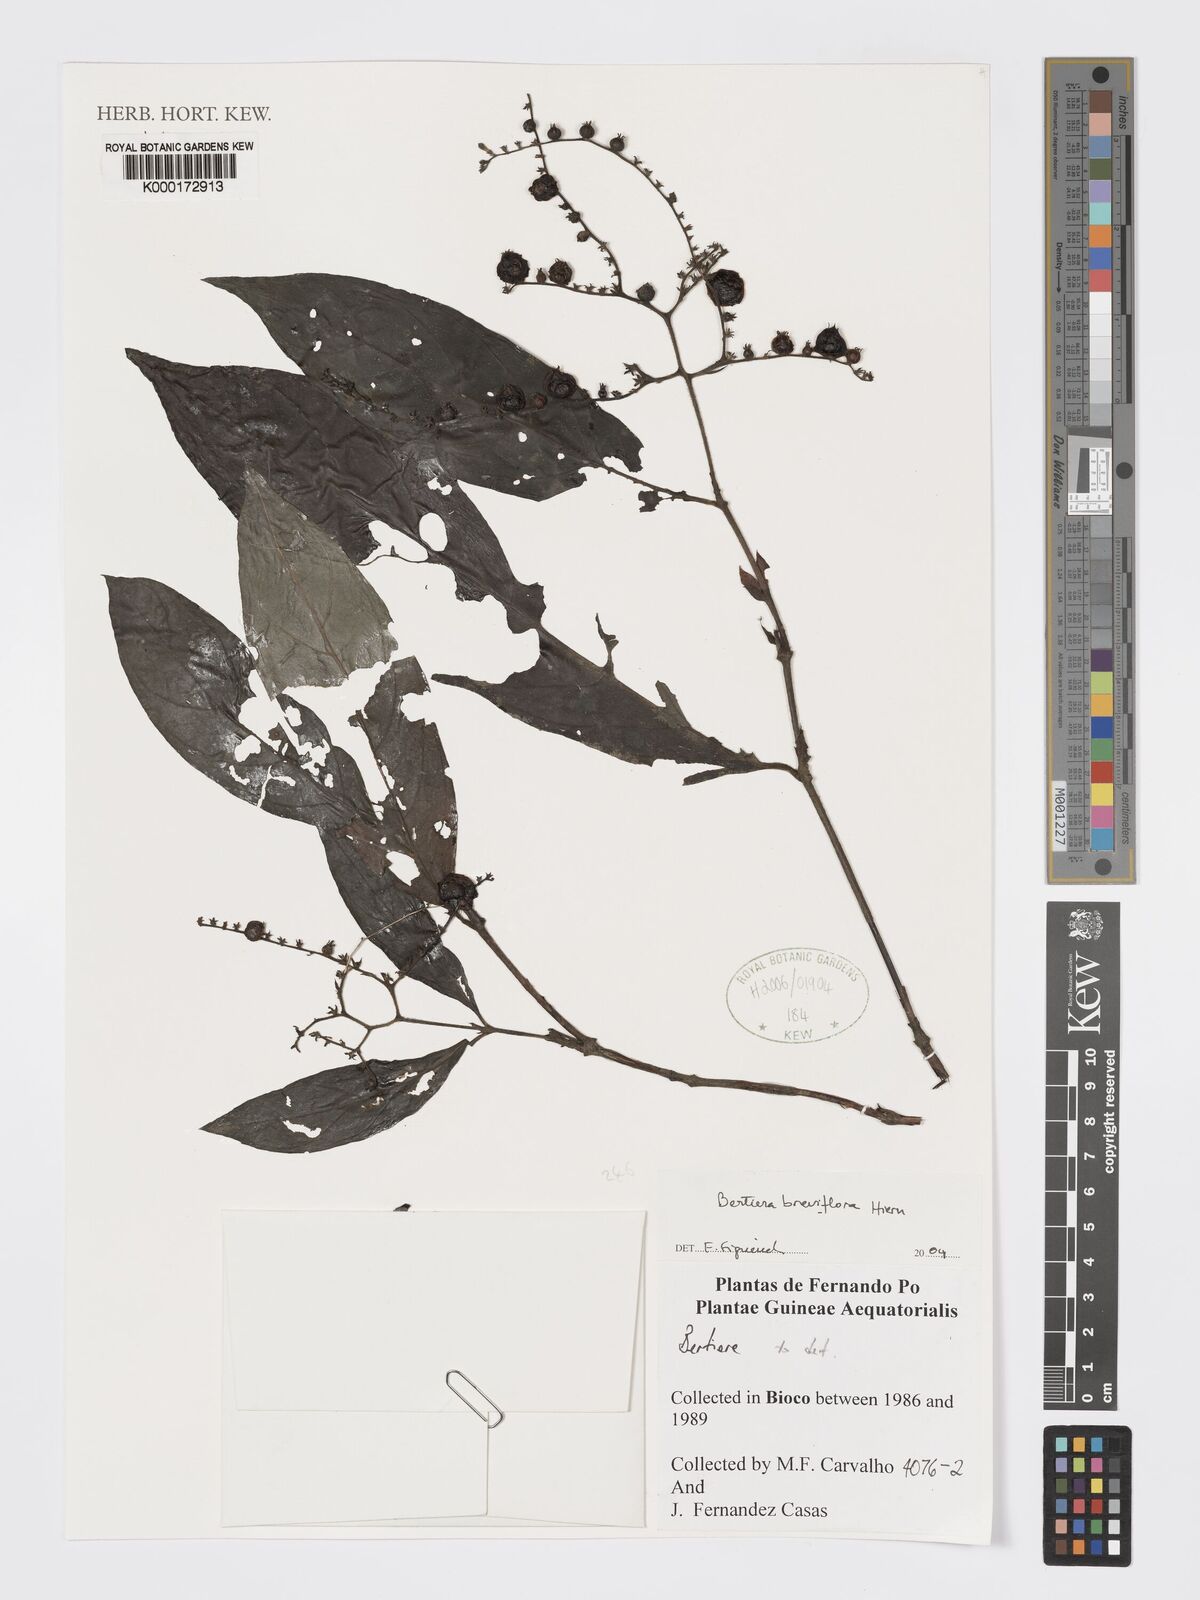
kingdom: Plantae
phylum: Tracheophyta
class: Magnoliopsida
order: Gentianales
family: Rubiaceae
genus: Bertiera
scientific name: Bertiera breviflora
